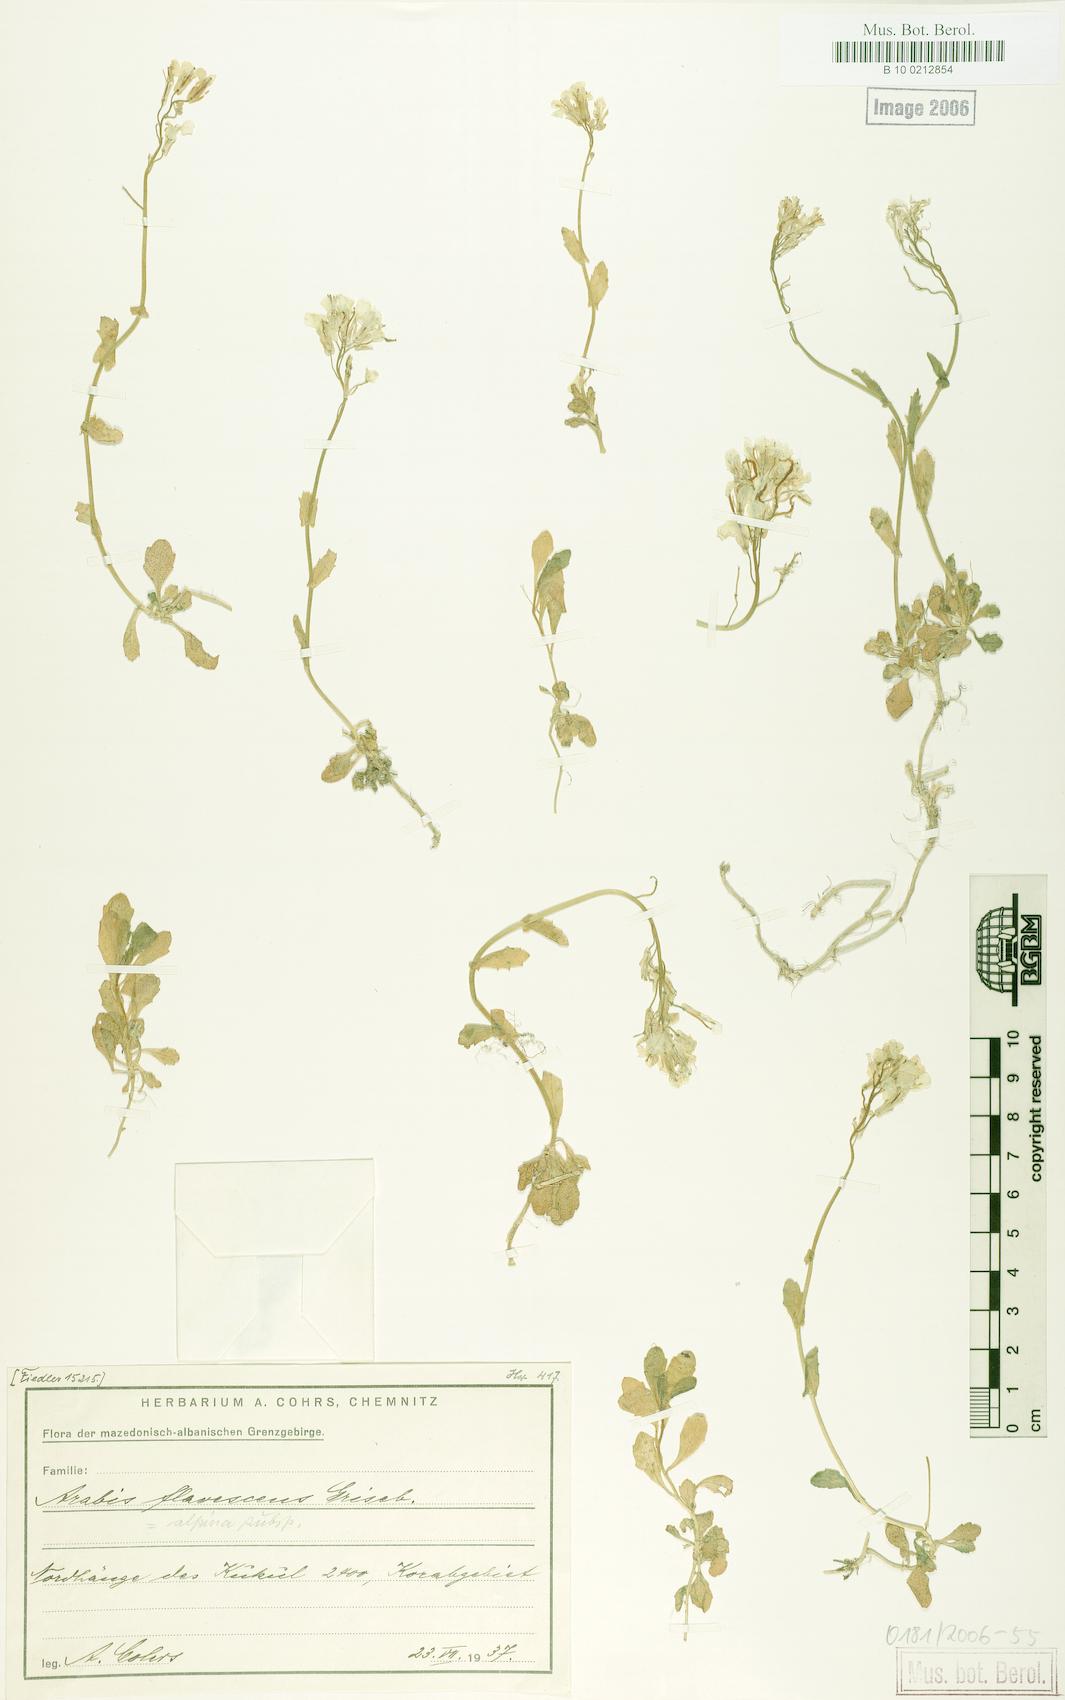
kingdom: Plantae
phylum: Tracheophyta
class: Magnoliopsida
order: Brassicales
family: Brassicaceae
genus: Arabis
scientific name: Arabis
